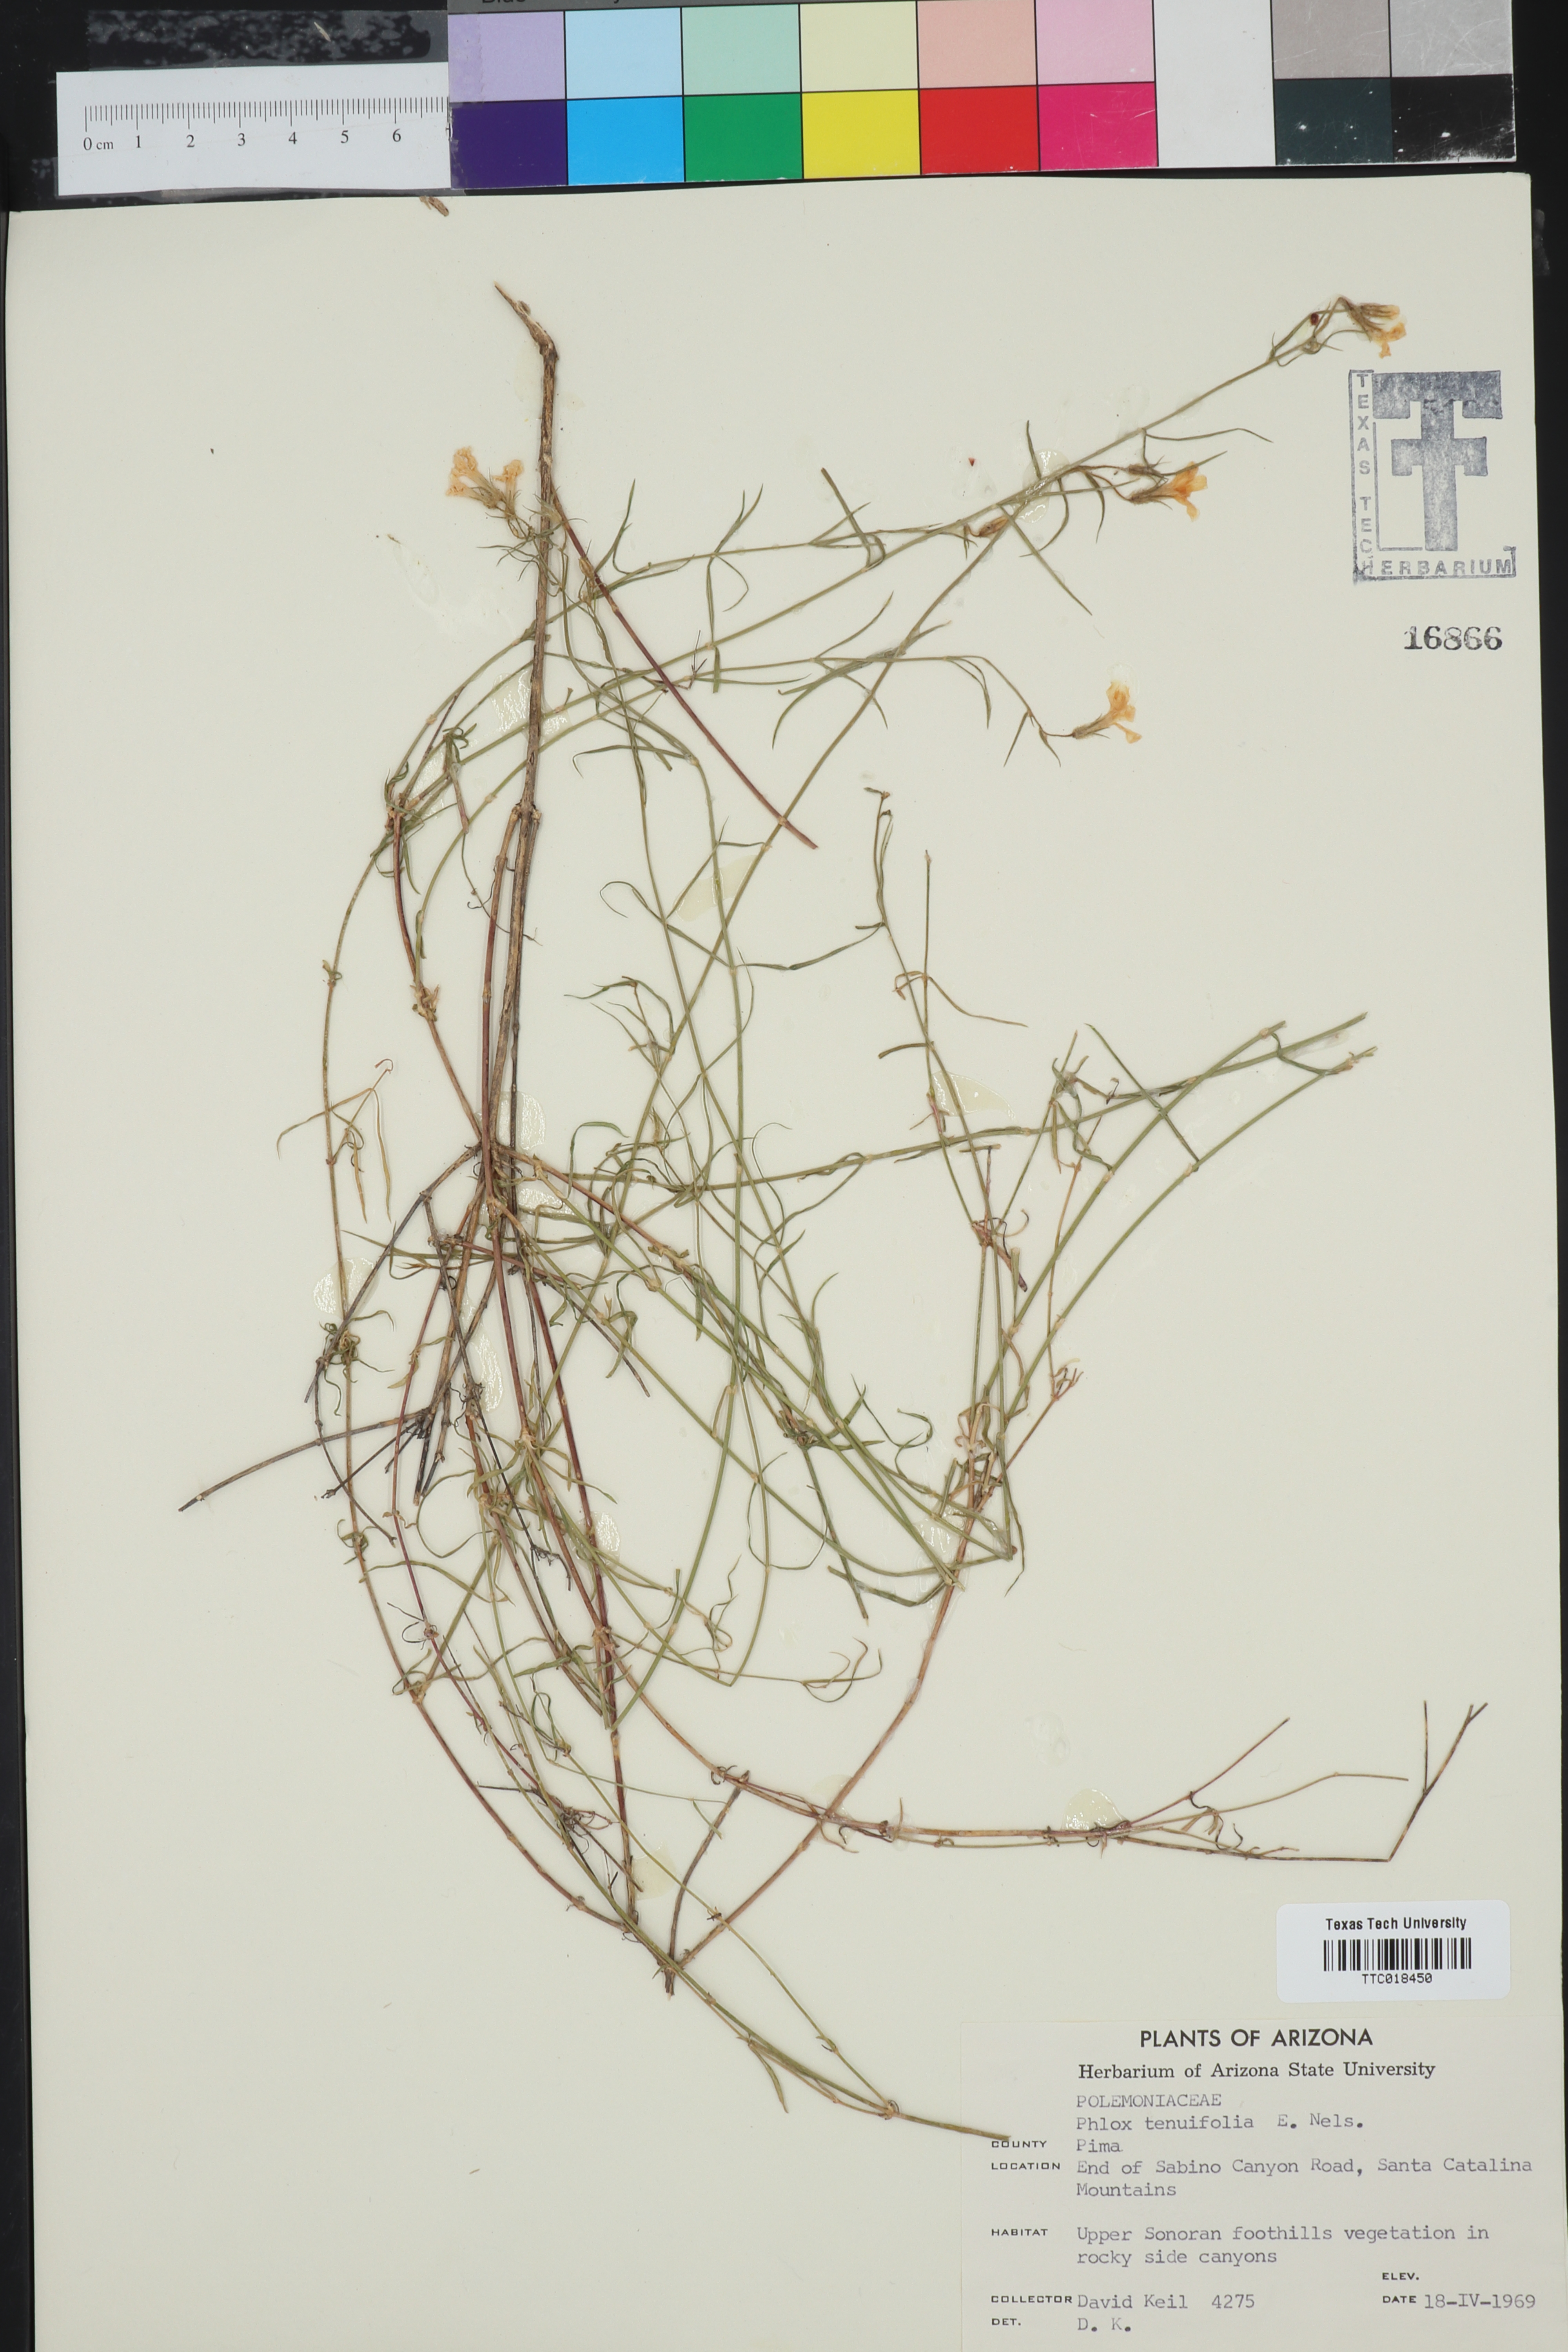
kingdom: Plantae
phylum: Tracheophyta
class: Magnoliopsida
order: Ericales
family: Polemoniaceae
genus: Phlox
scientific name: Phlox tenuifolia
